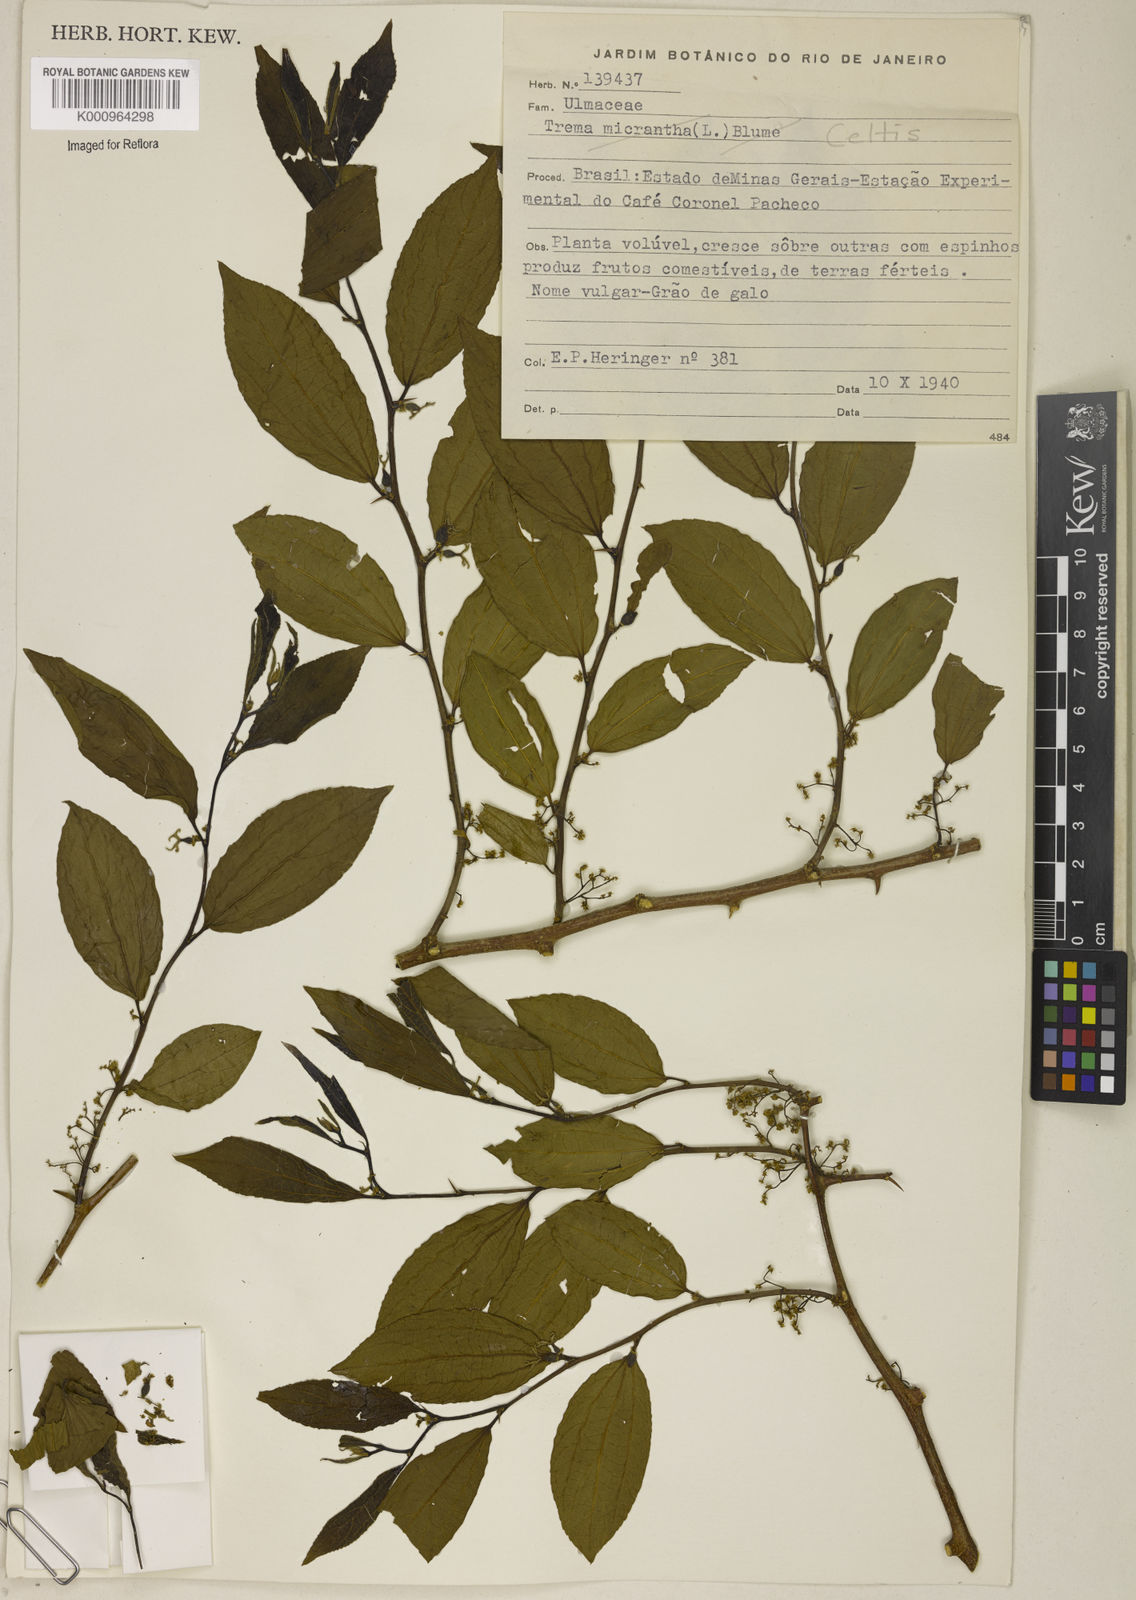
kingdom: Plantae
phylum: Tracheophyta
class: Magnoliopsida
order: Rosales
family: Cannabaceae
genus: Celtis
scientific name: Celtis
